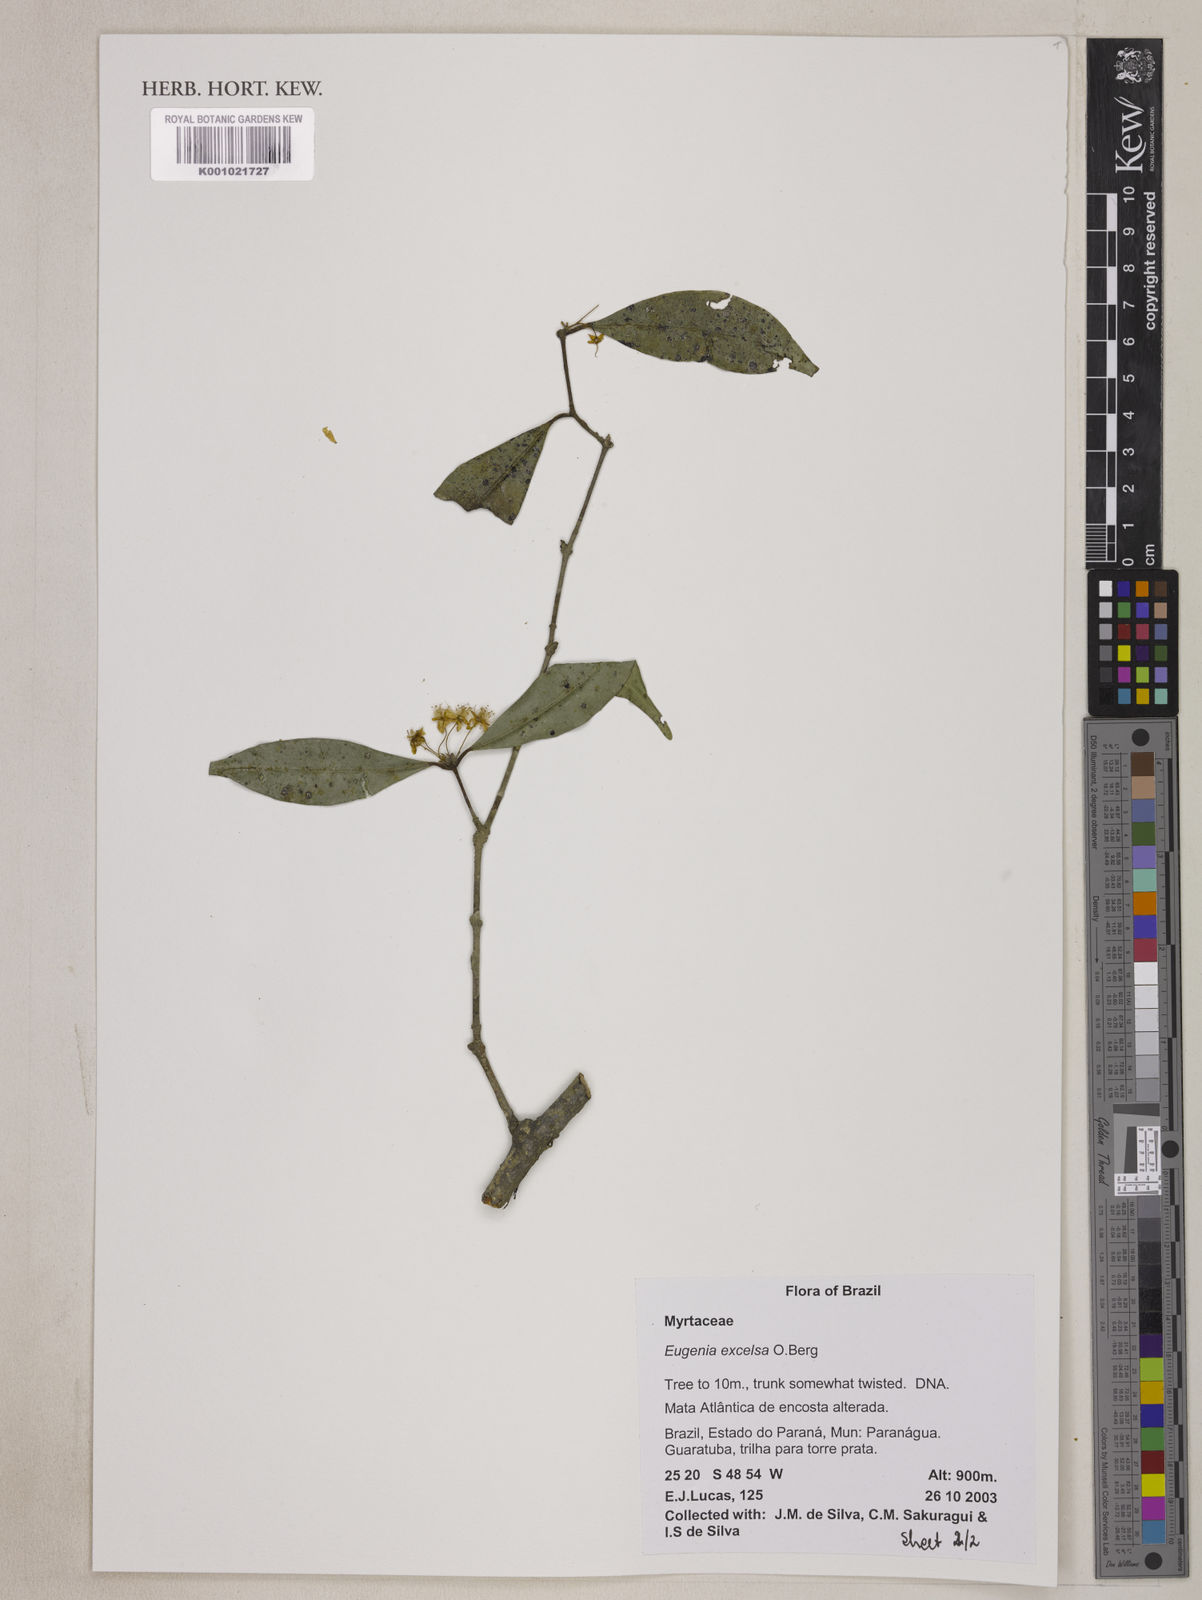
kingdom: Plantae
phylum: Tracheophyta
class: Magnoliopsida
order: Myrtales
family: Myrtaceae
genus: Eugenia
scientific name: Eugenia excelsa
